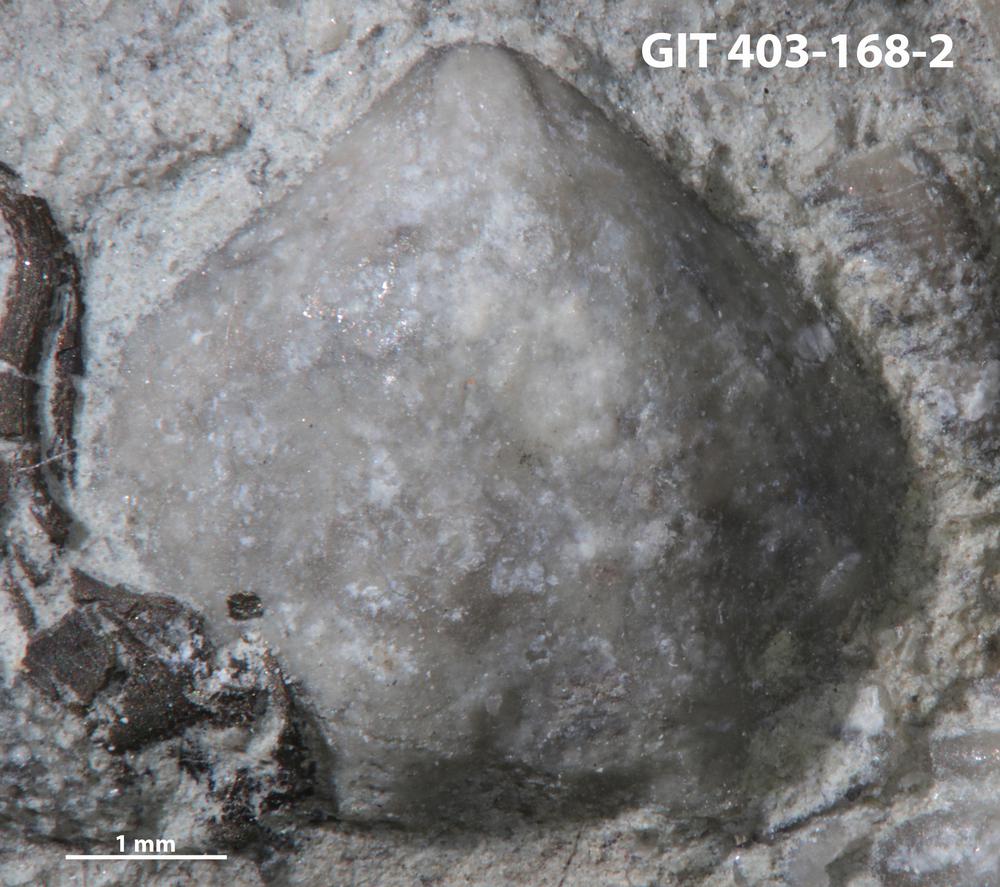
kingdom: Animalia
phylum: Brachiopoda
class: Rhynchonellata
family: Athyrididae
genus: Collarothyris
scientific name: Collarothyris
